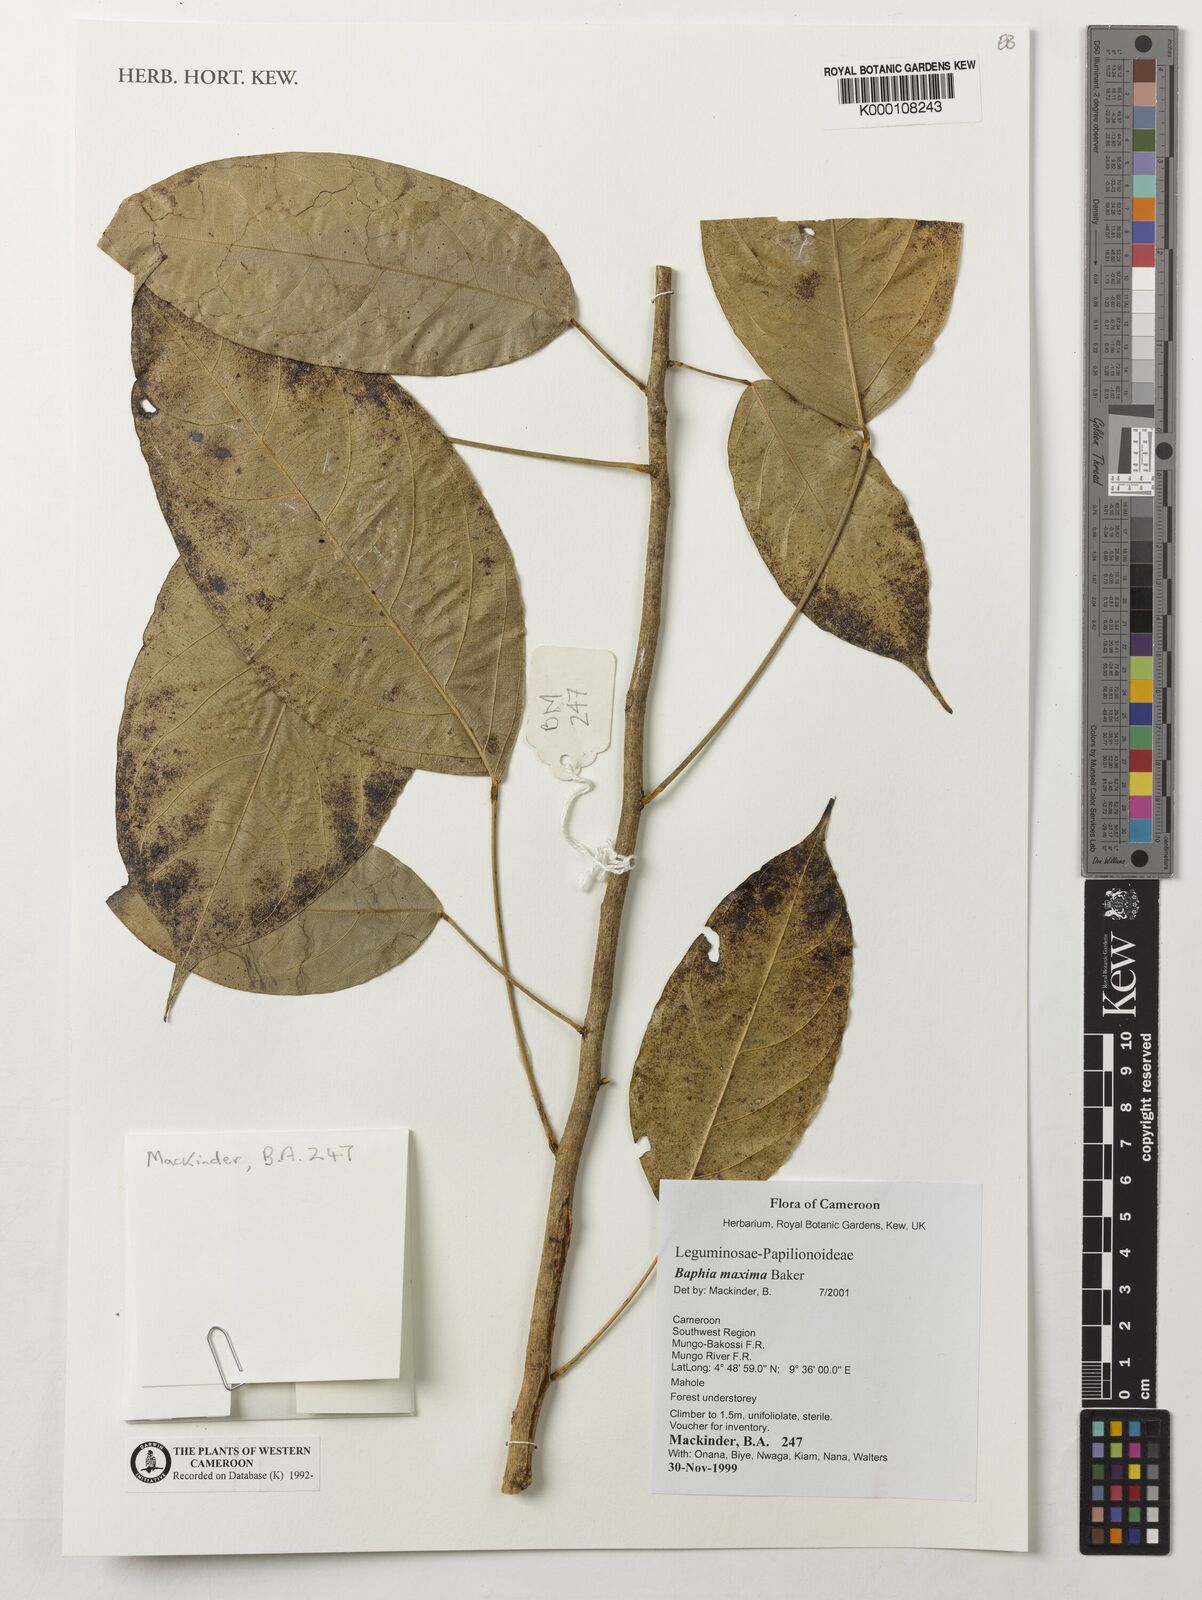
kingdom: Plantae
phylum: Tracheophyta
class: Magnoliopsida
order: Fabales
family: Fabaceae
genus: Baphia
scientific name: Baphia maxima
